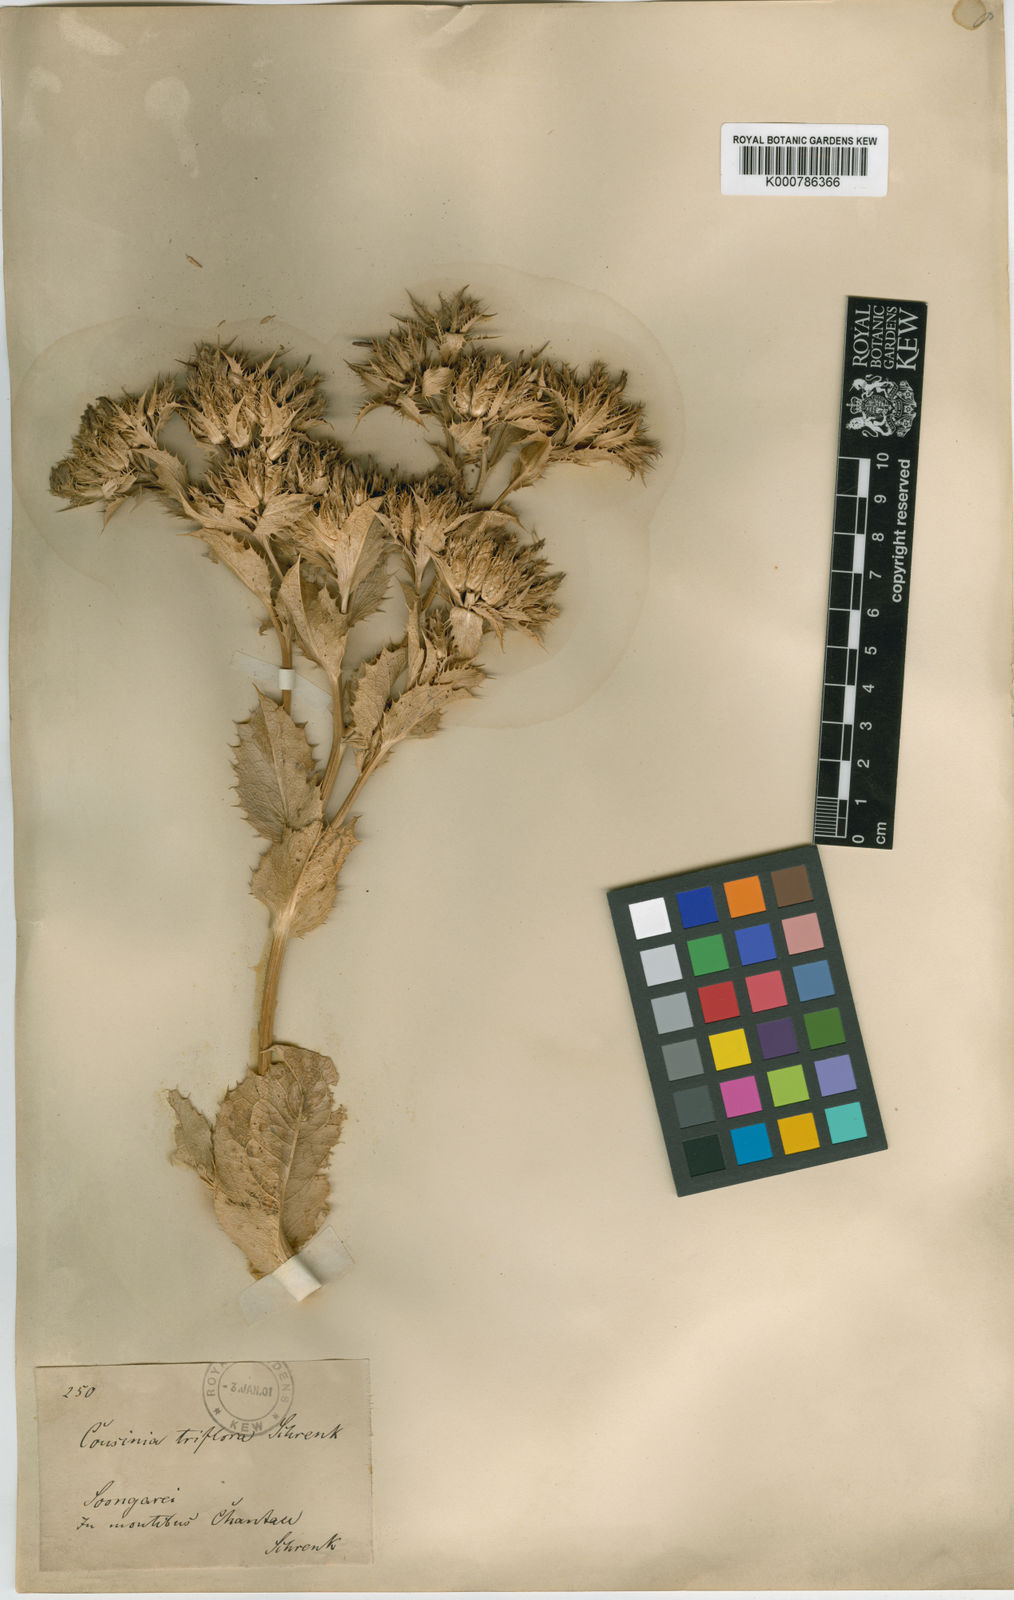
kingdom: Plantae
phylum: Tracheophyta
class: Magnoliopsida
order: Asterales
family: Asteraceae
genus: Arctium
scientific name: Arctium triflorum
